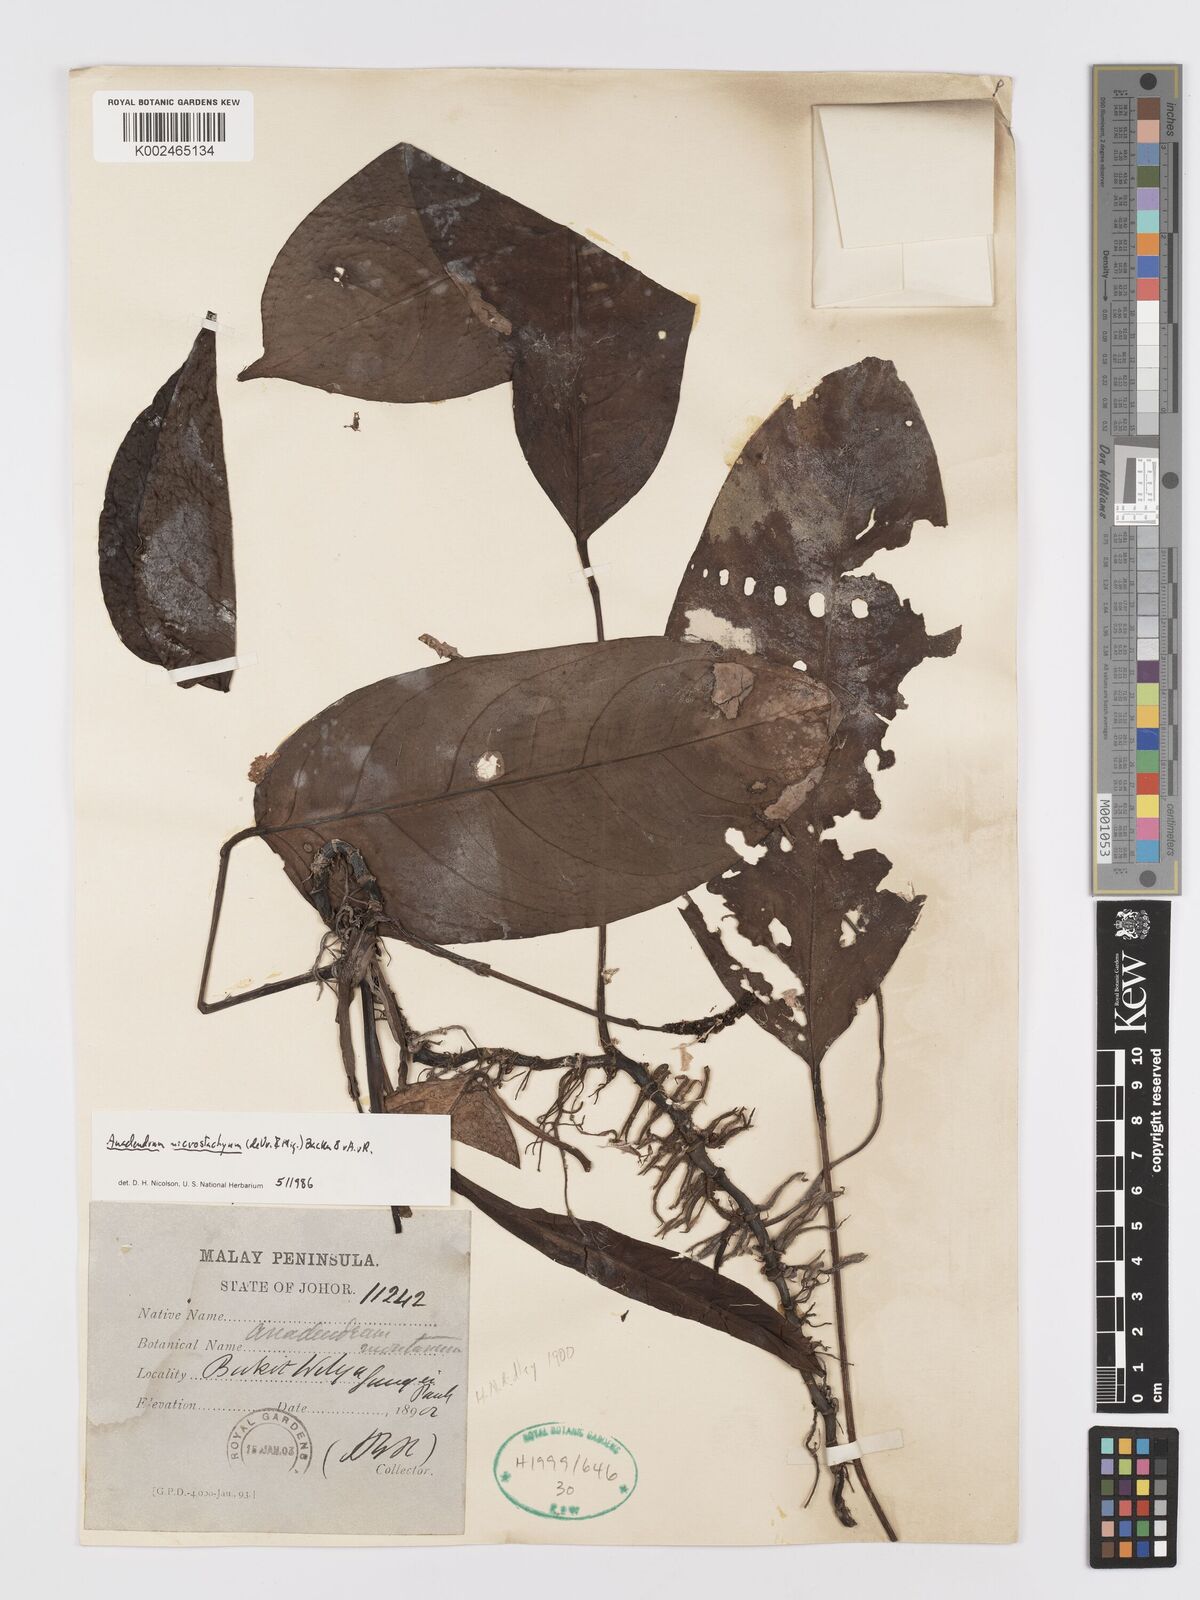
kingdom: Plantae
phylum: Tracheophyta
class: Liliopsida
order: Alismatales
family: Araceae
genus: Anadendrum
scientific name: Anadendrum microstachyum
